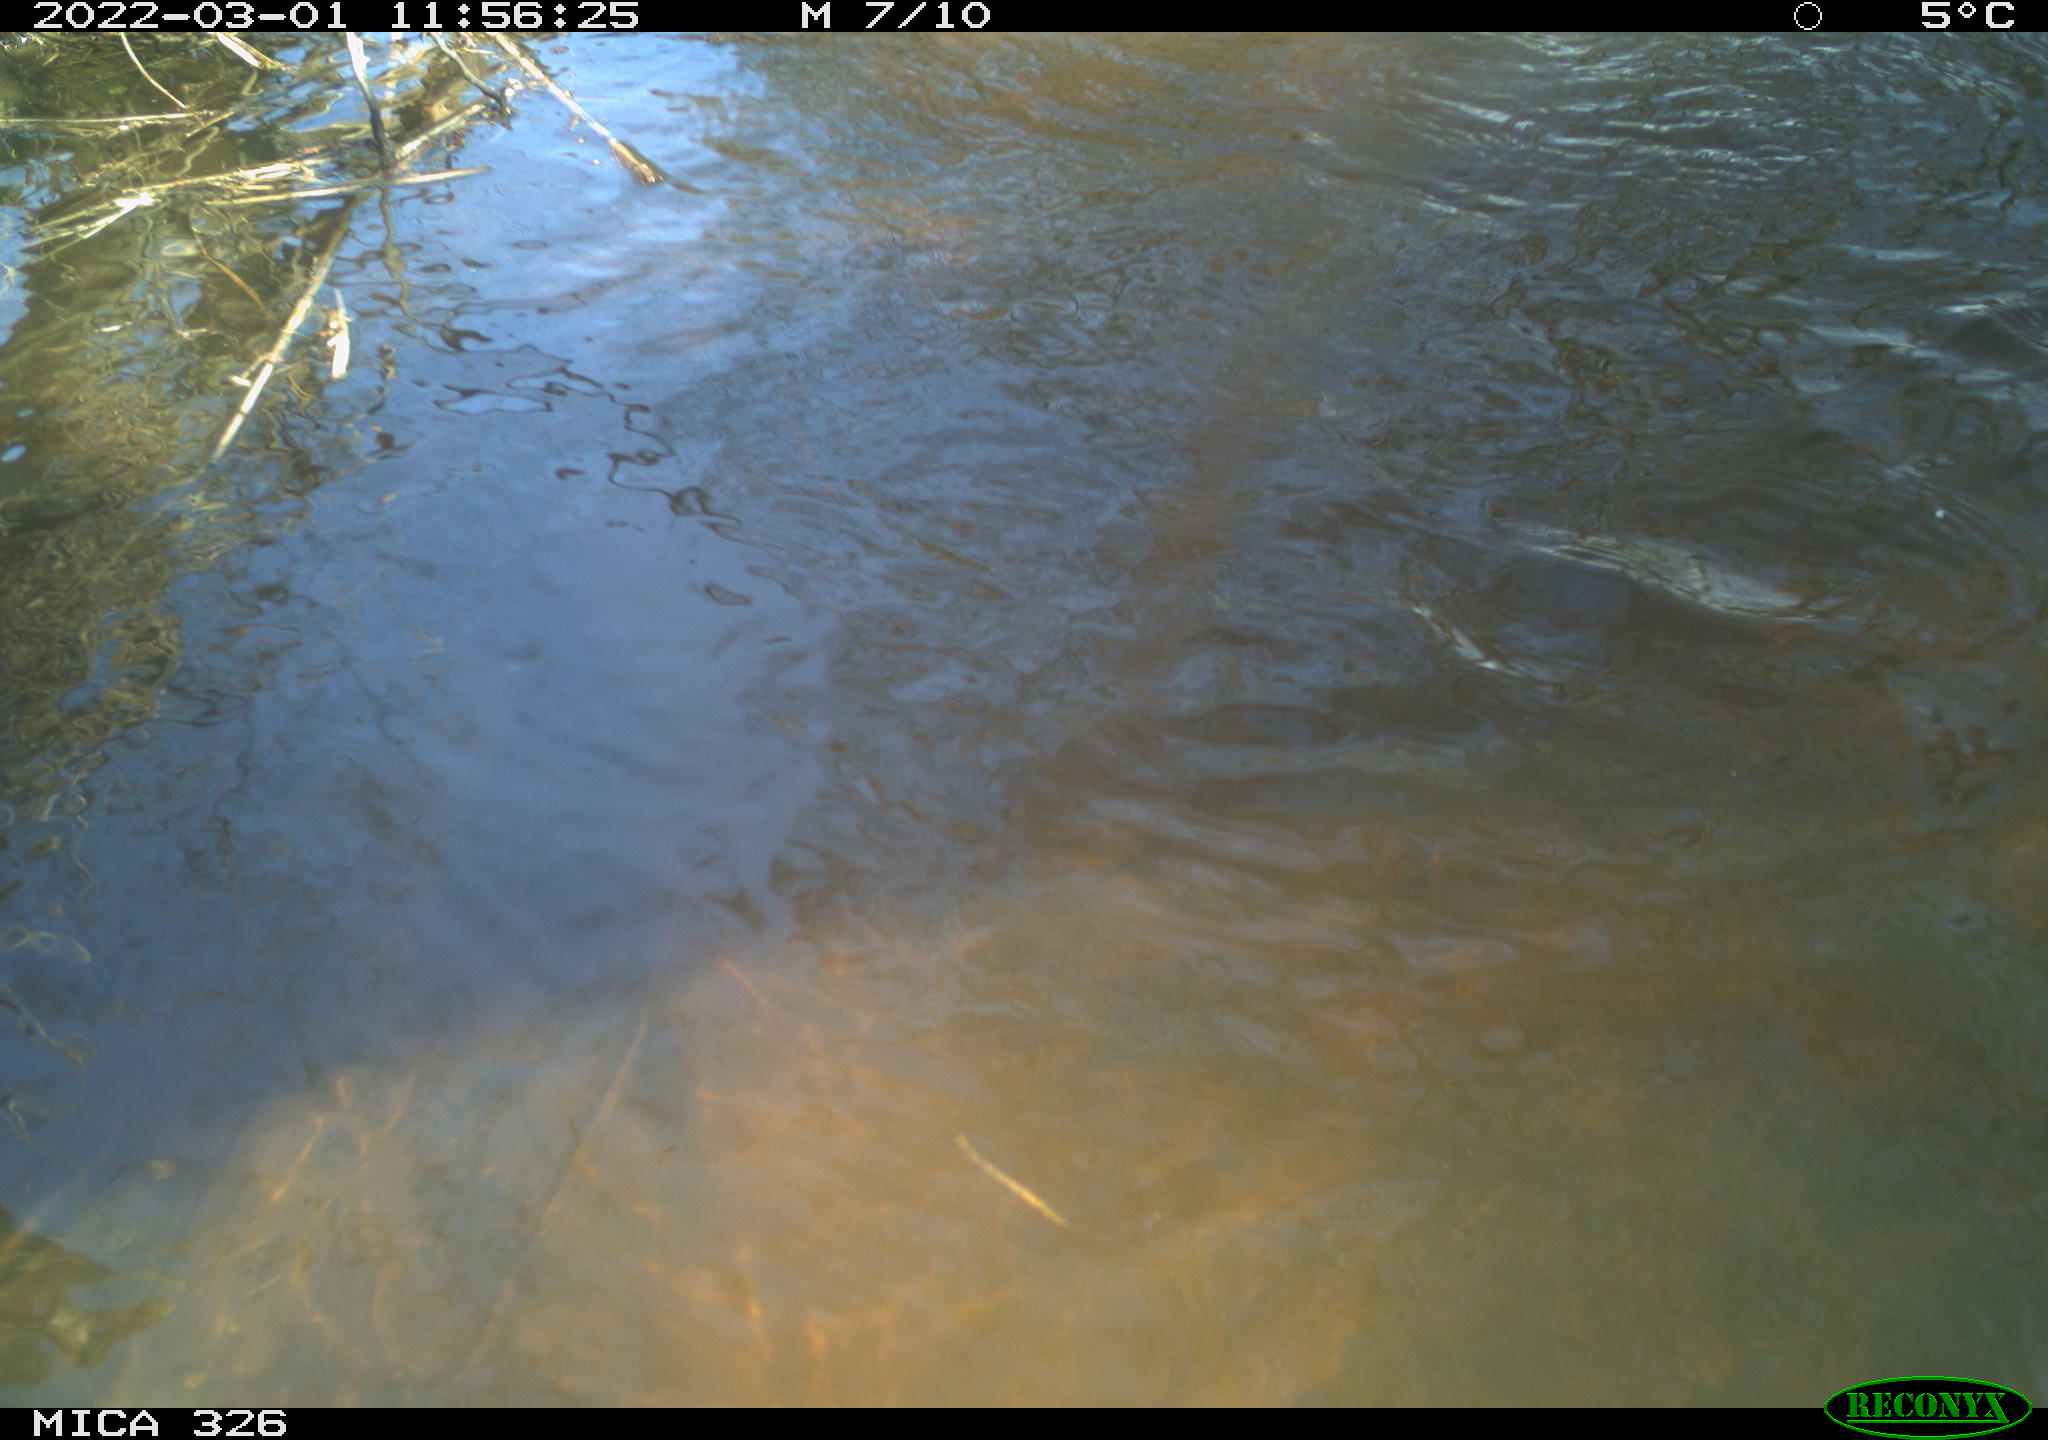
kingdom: Animalia
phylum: Chordata
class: Mammalia
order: Rodentia
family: Cricetidae
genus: Ondatra
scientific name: Ondatra zibethicus
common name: Muskrat
